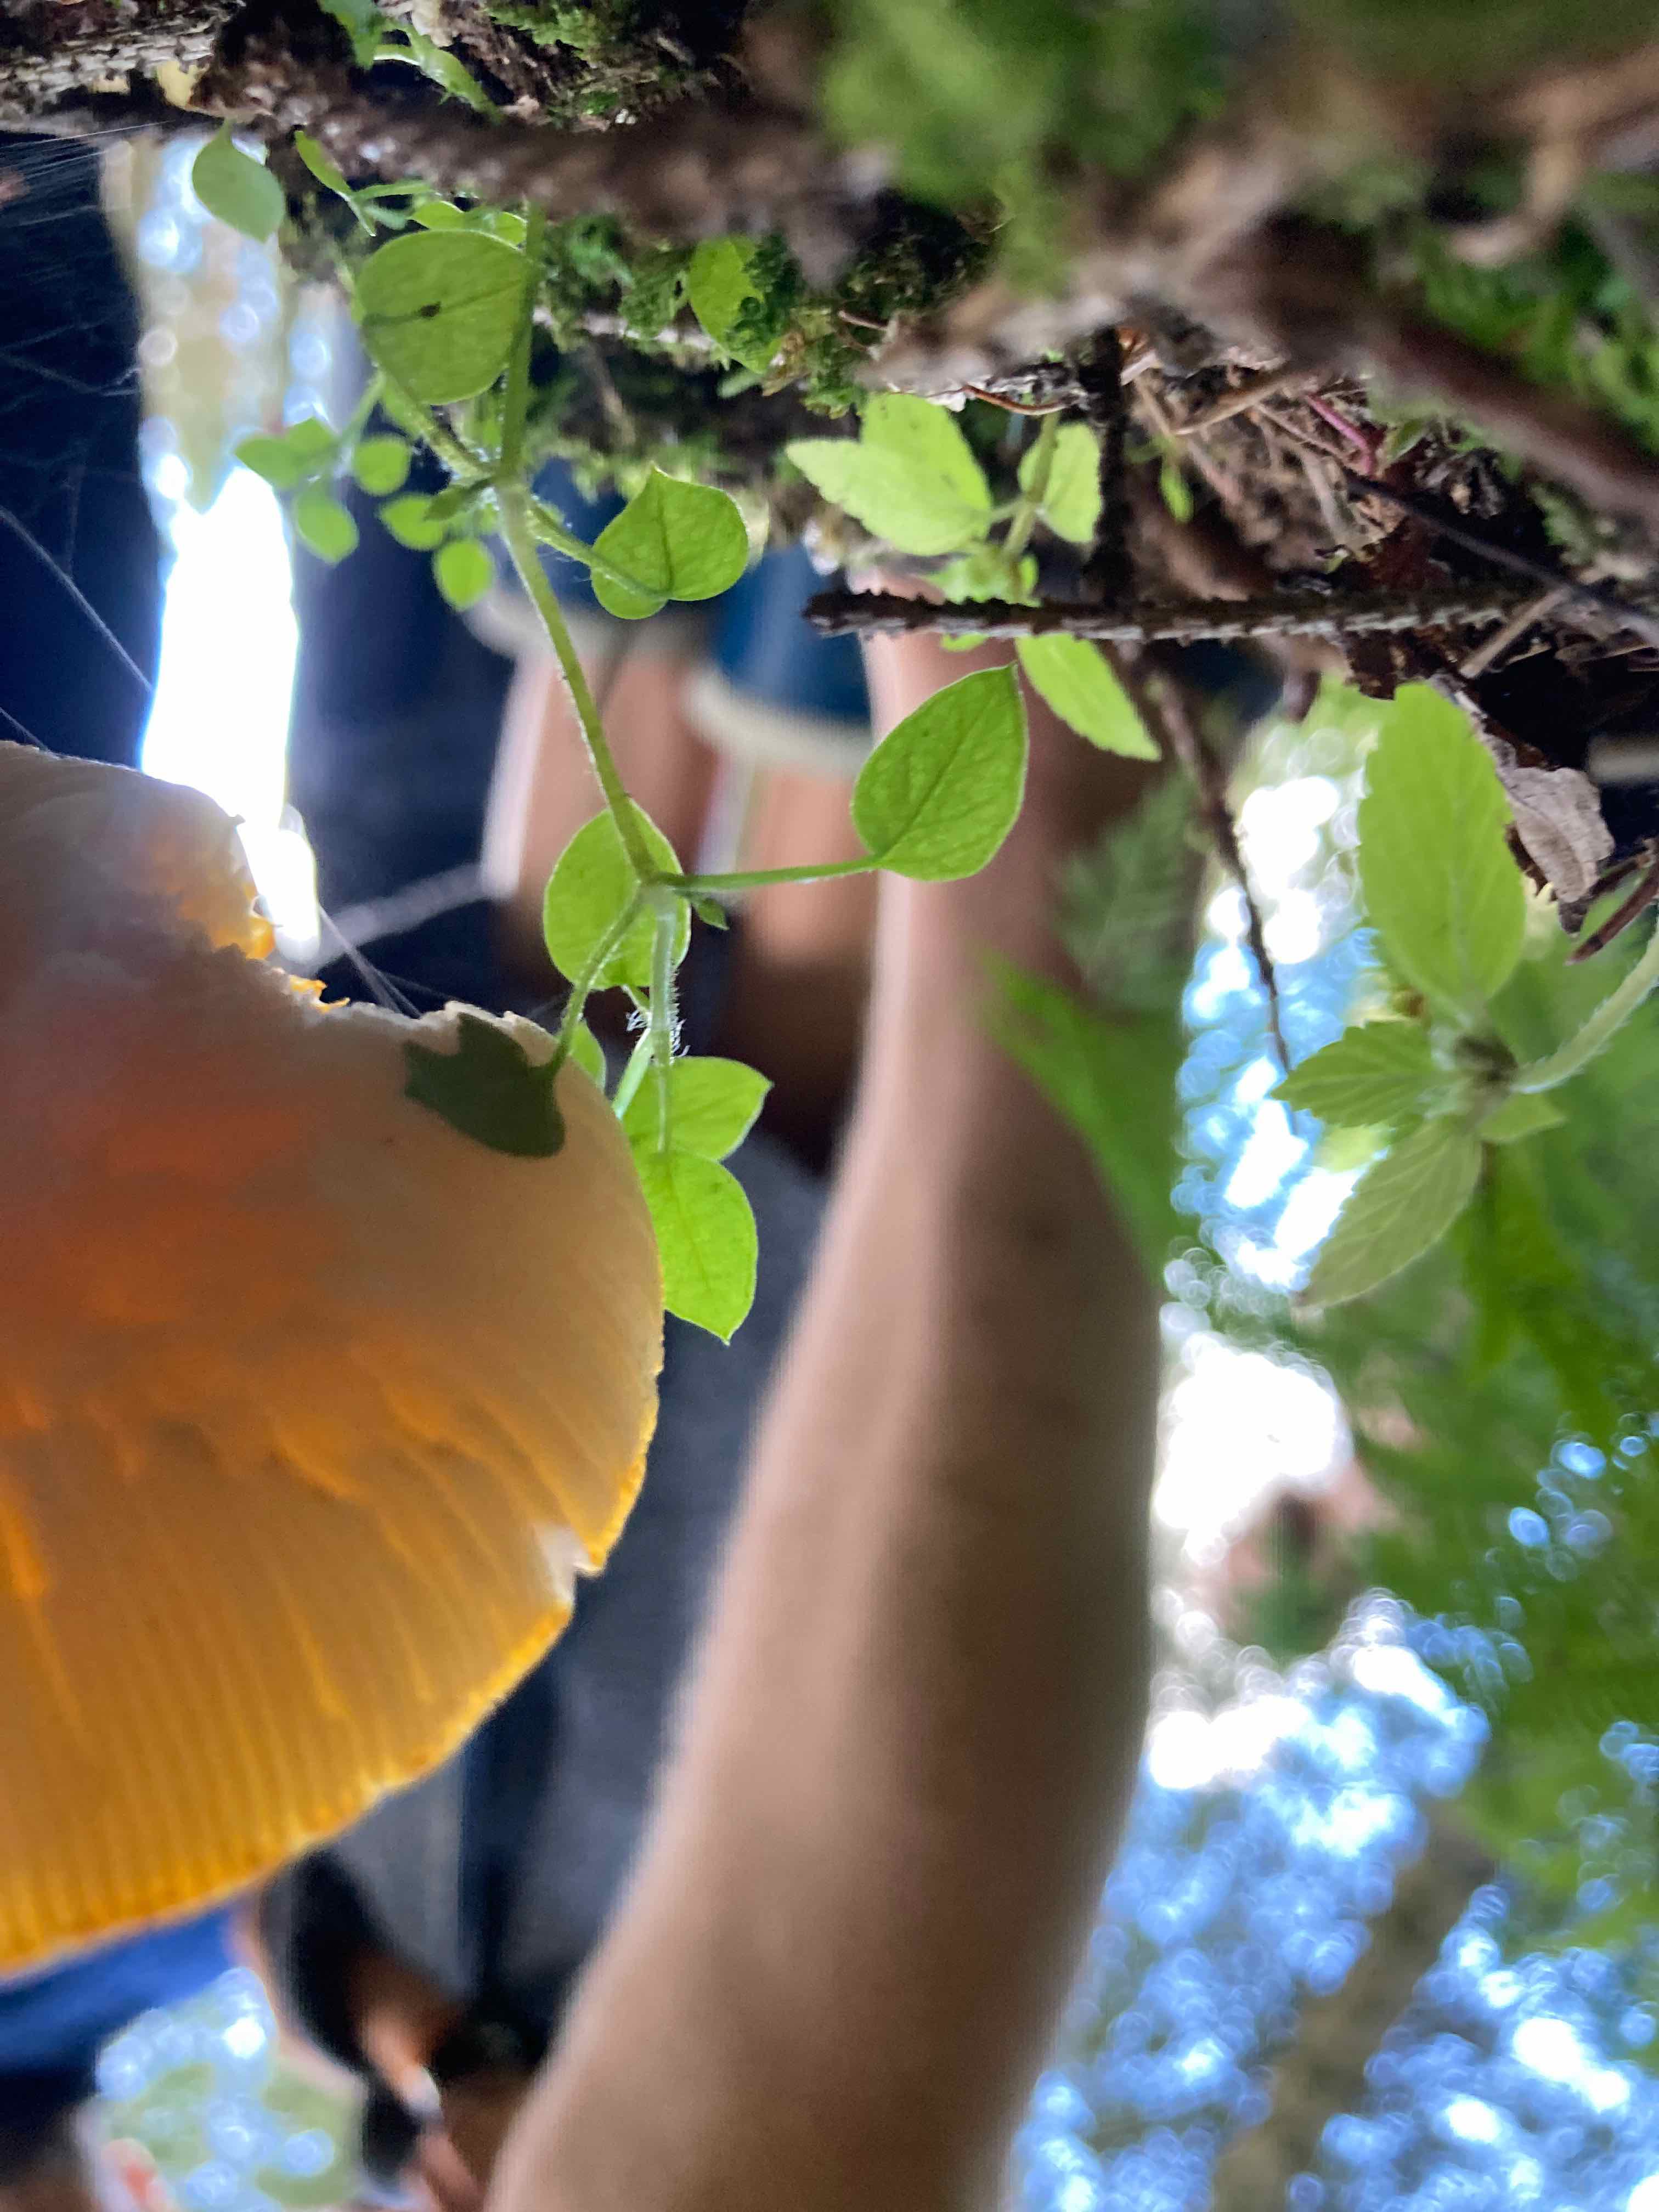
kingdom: Fungi
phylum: Basidiomycota
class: Agaricomycetes
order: Agaricales
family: Amanitaceae
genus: Amanita
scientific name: Amanita muscaria
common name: rød fluesvamp
